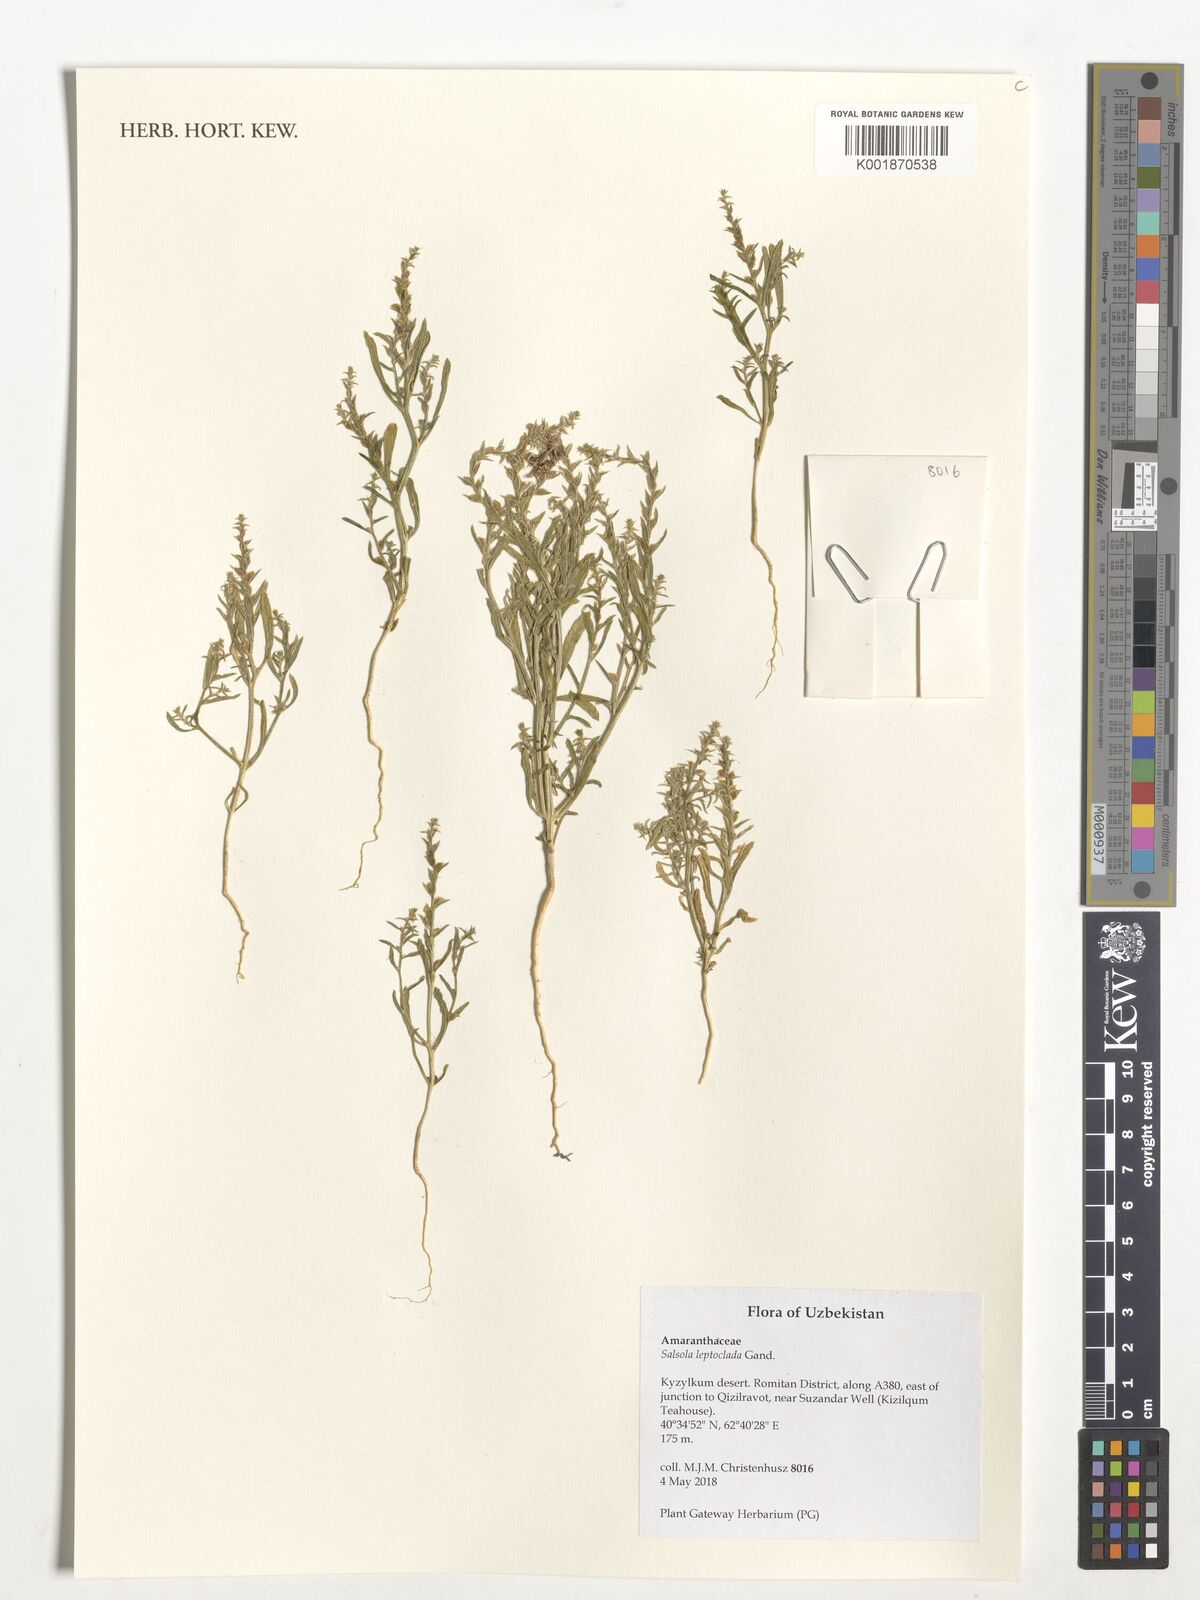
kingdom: Plantae
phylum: Tracheophyta
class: Magnoliopsida
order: Caryophyllales
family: Amaranthaceae
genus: Caroxylon
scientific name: Caroxylon turkestanicum
